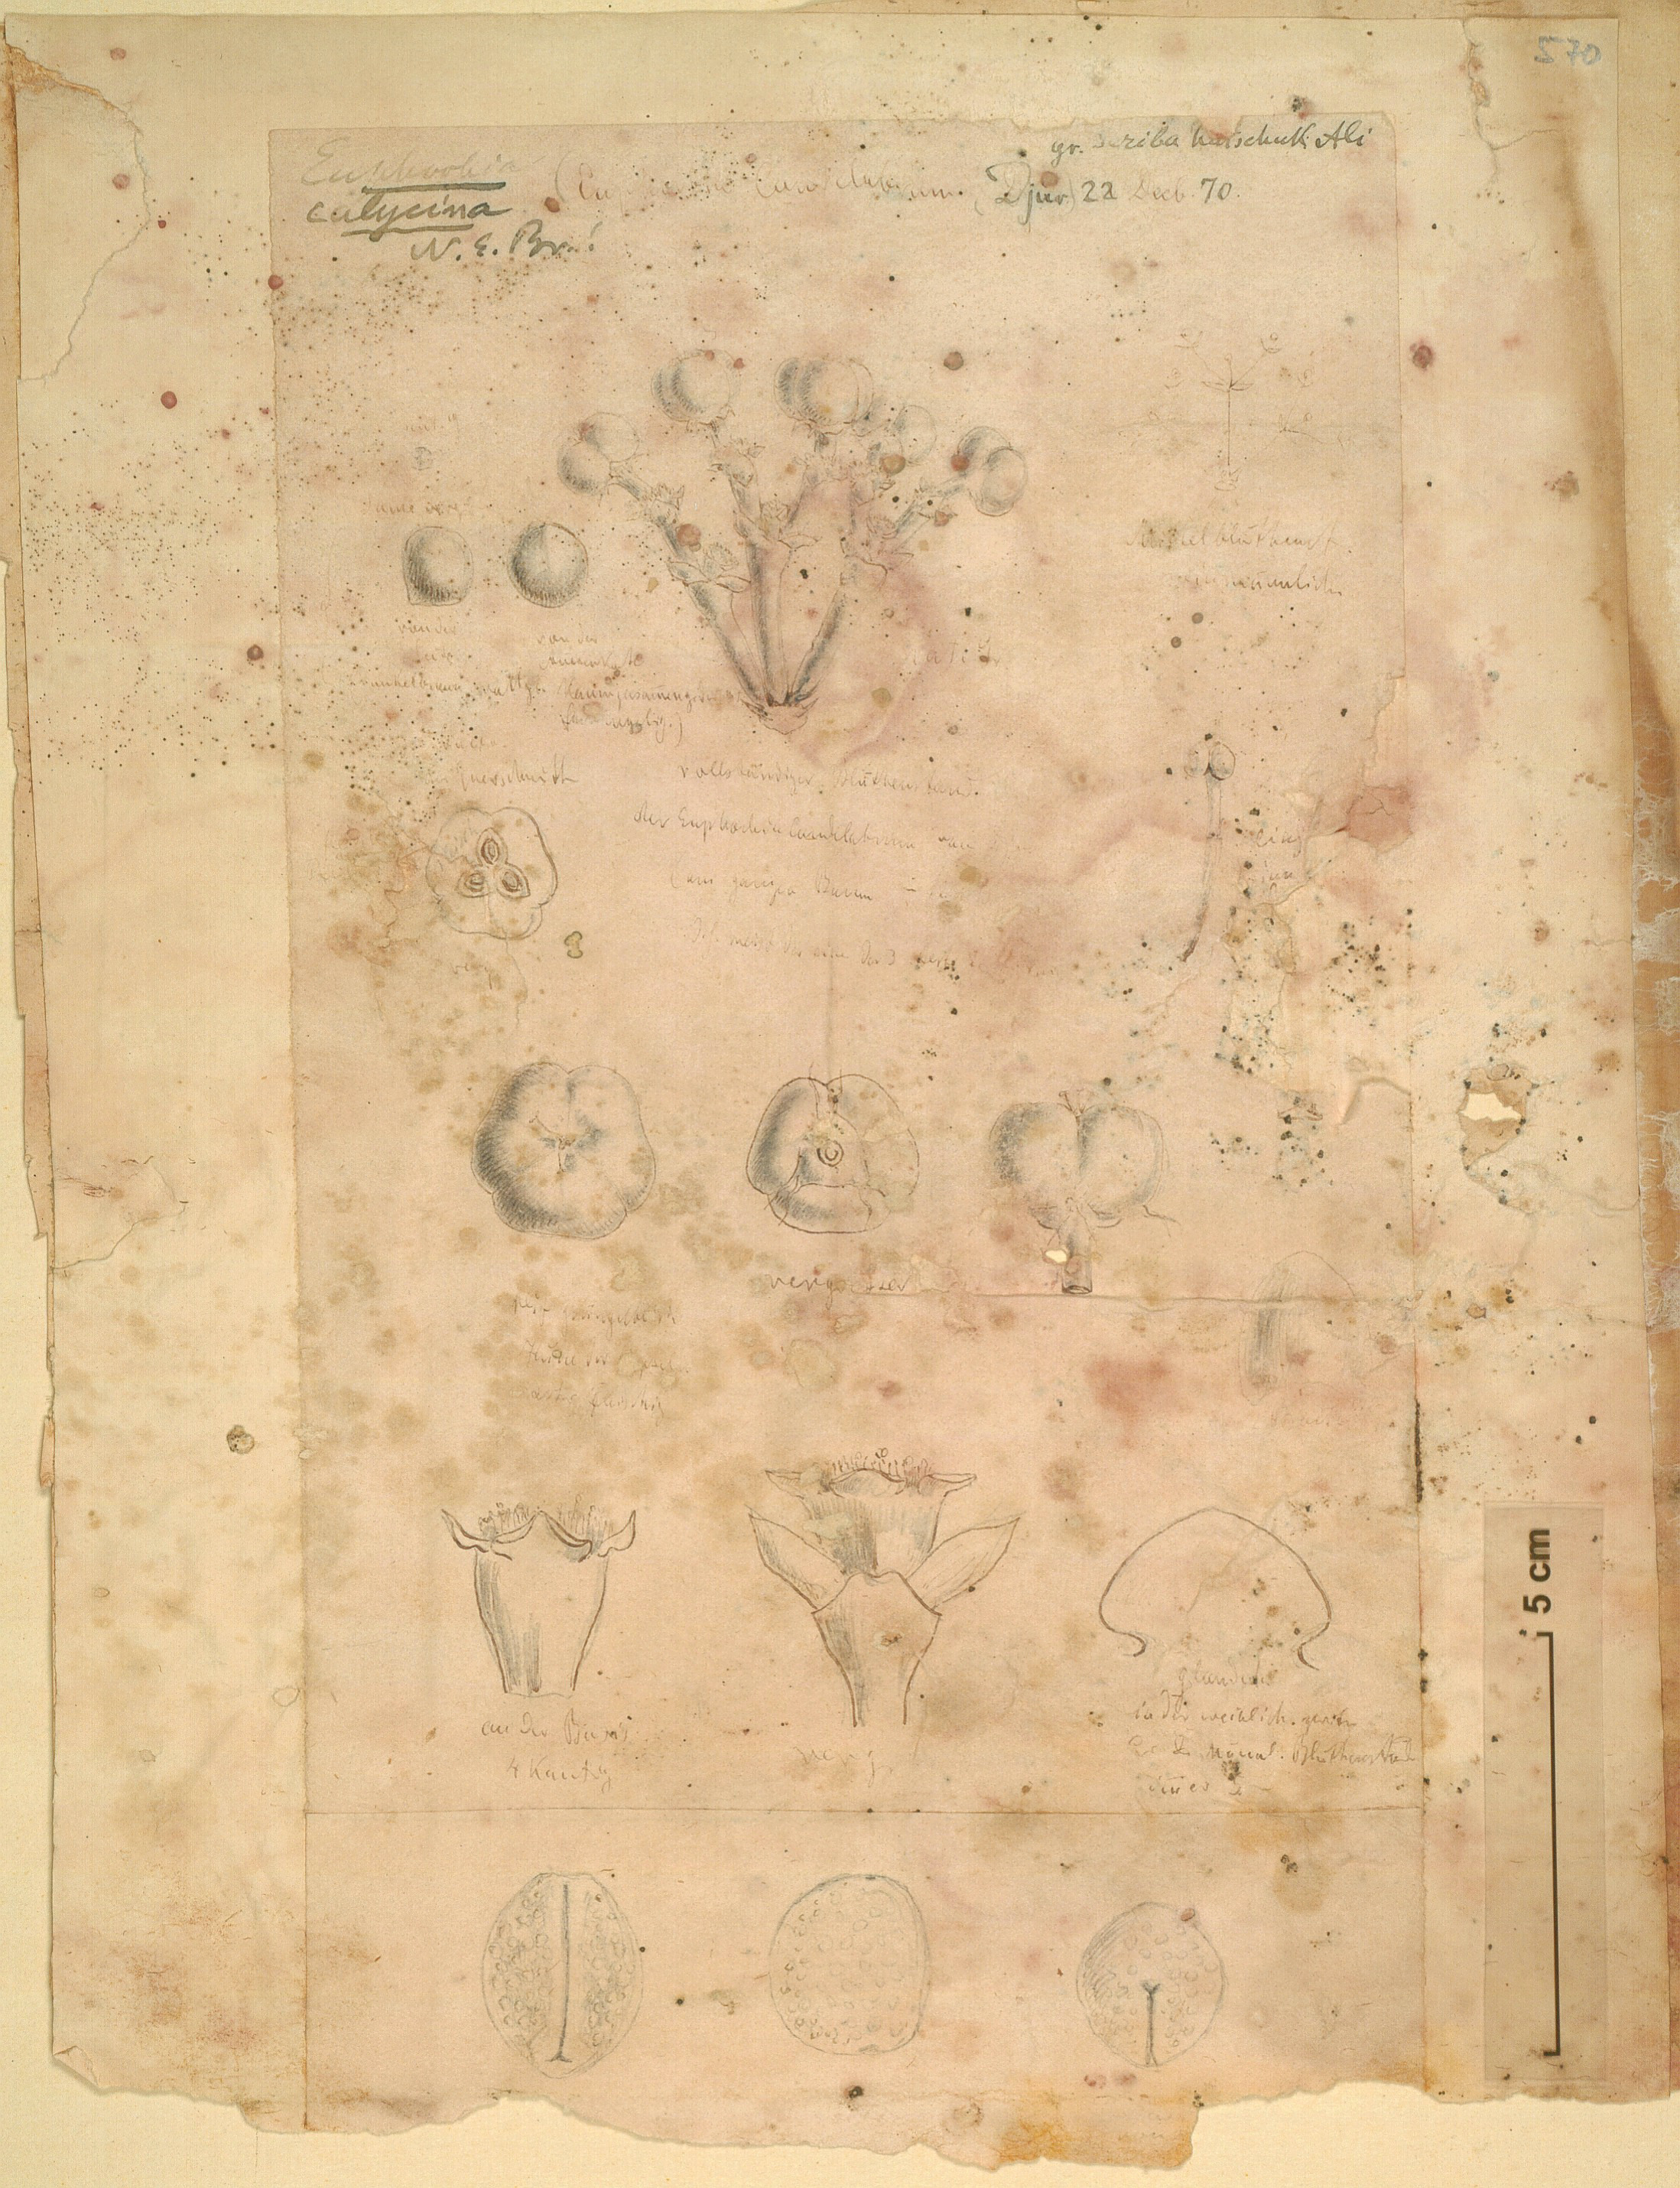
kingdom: Plantae
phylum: Tracheophyta
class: Magnoliopsida
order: Malpighiales
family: Euphorbiaceae
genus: Euphorbia
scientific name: Euphorbia candelabrum
